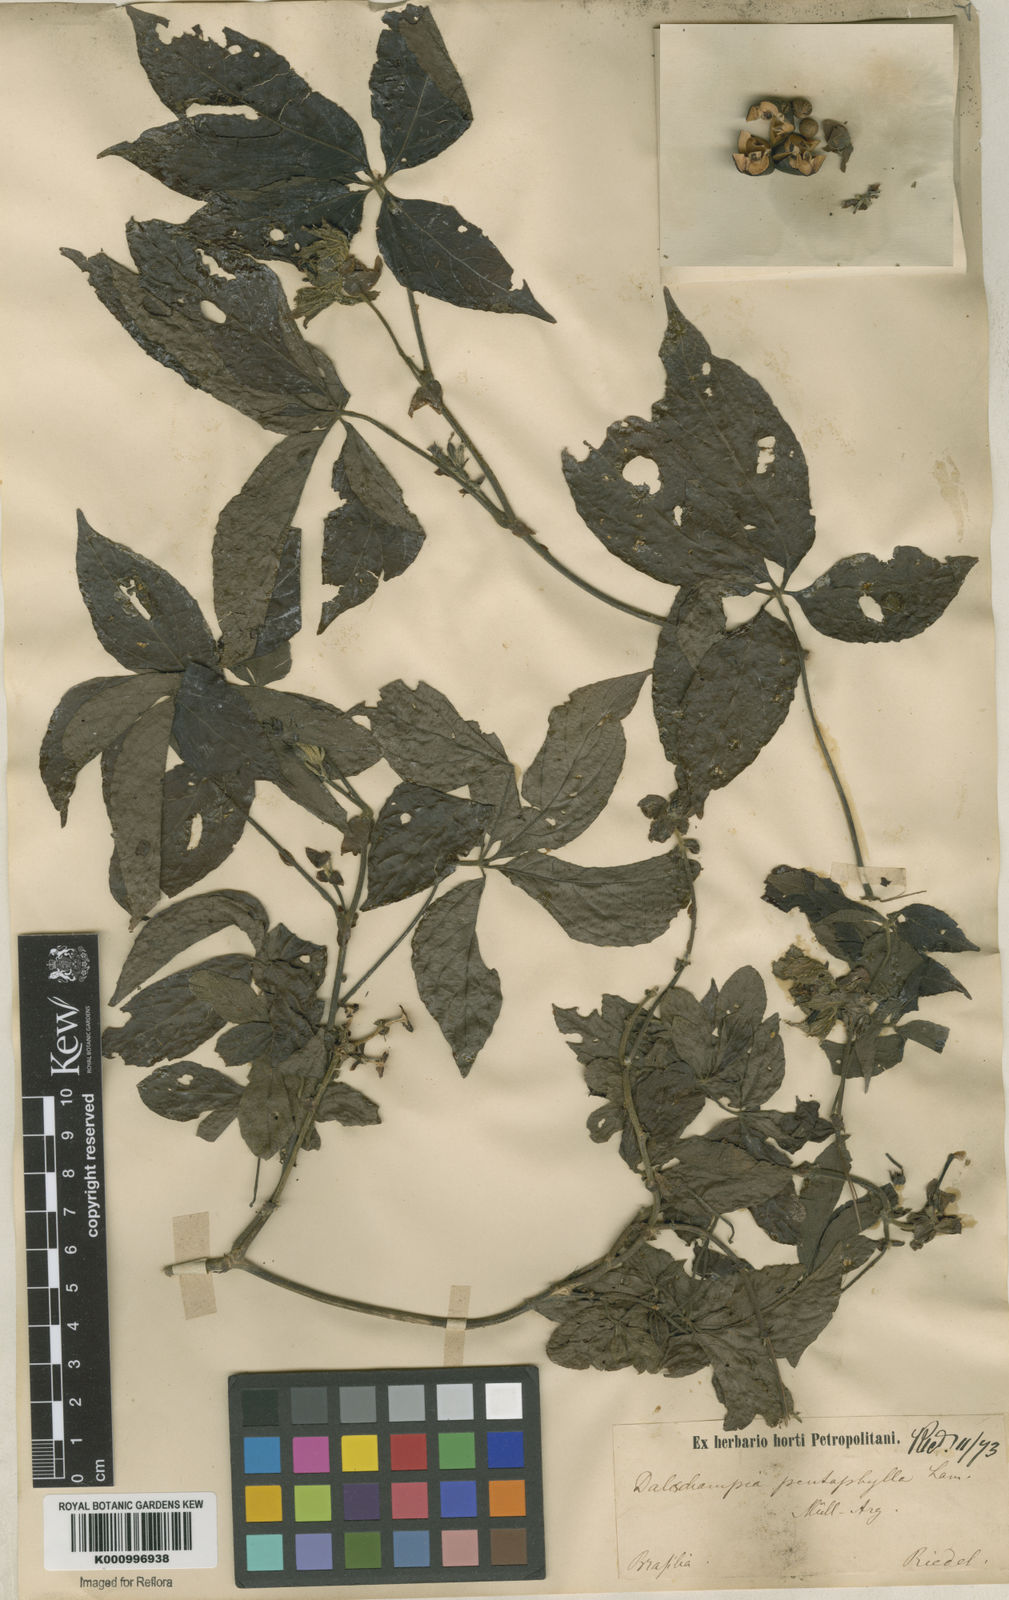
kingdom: Plantae
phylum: Tracheophyta
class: Magnoliopsida
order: Malpighiales
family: Euphorbiaceae
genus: Dalechampia
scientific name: Dalechampia pentaphylla
